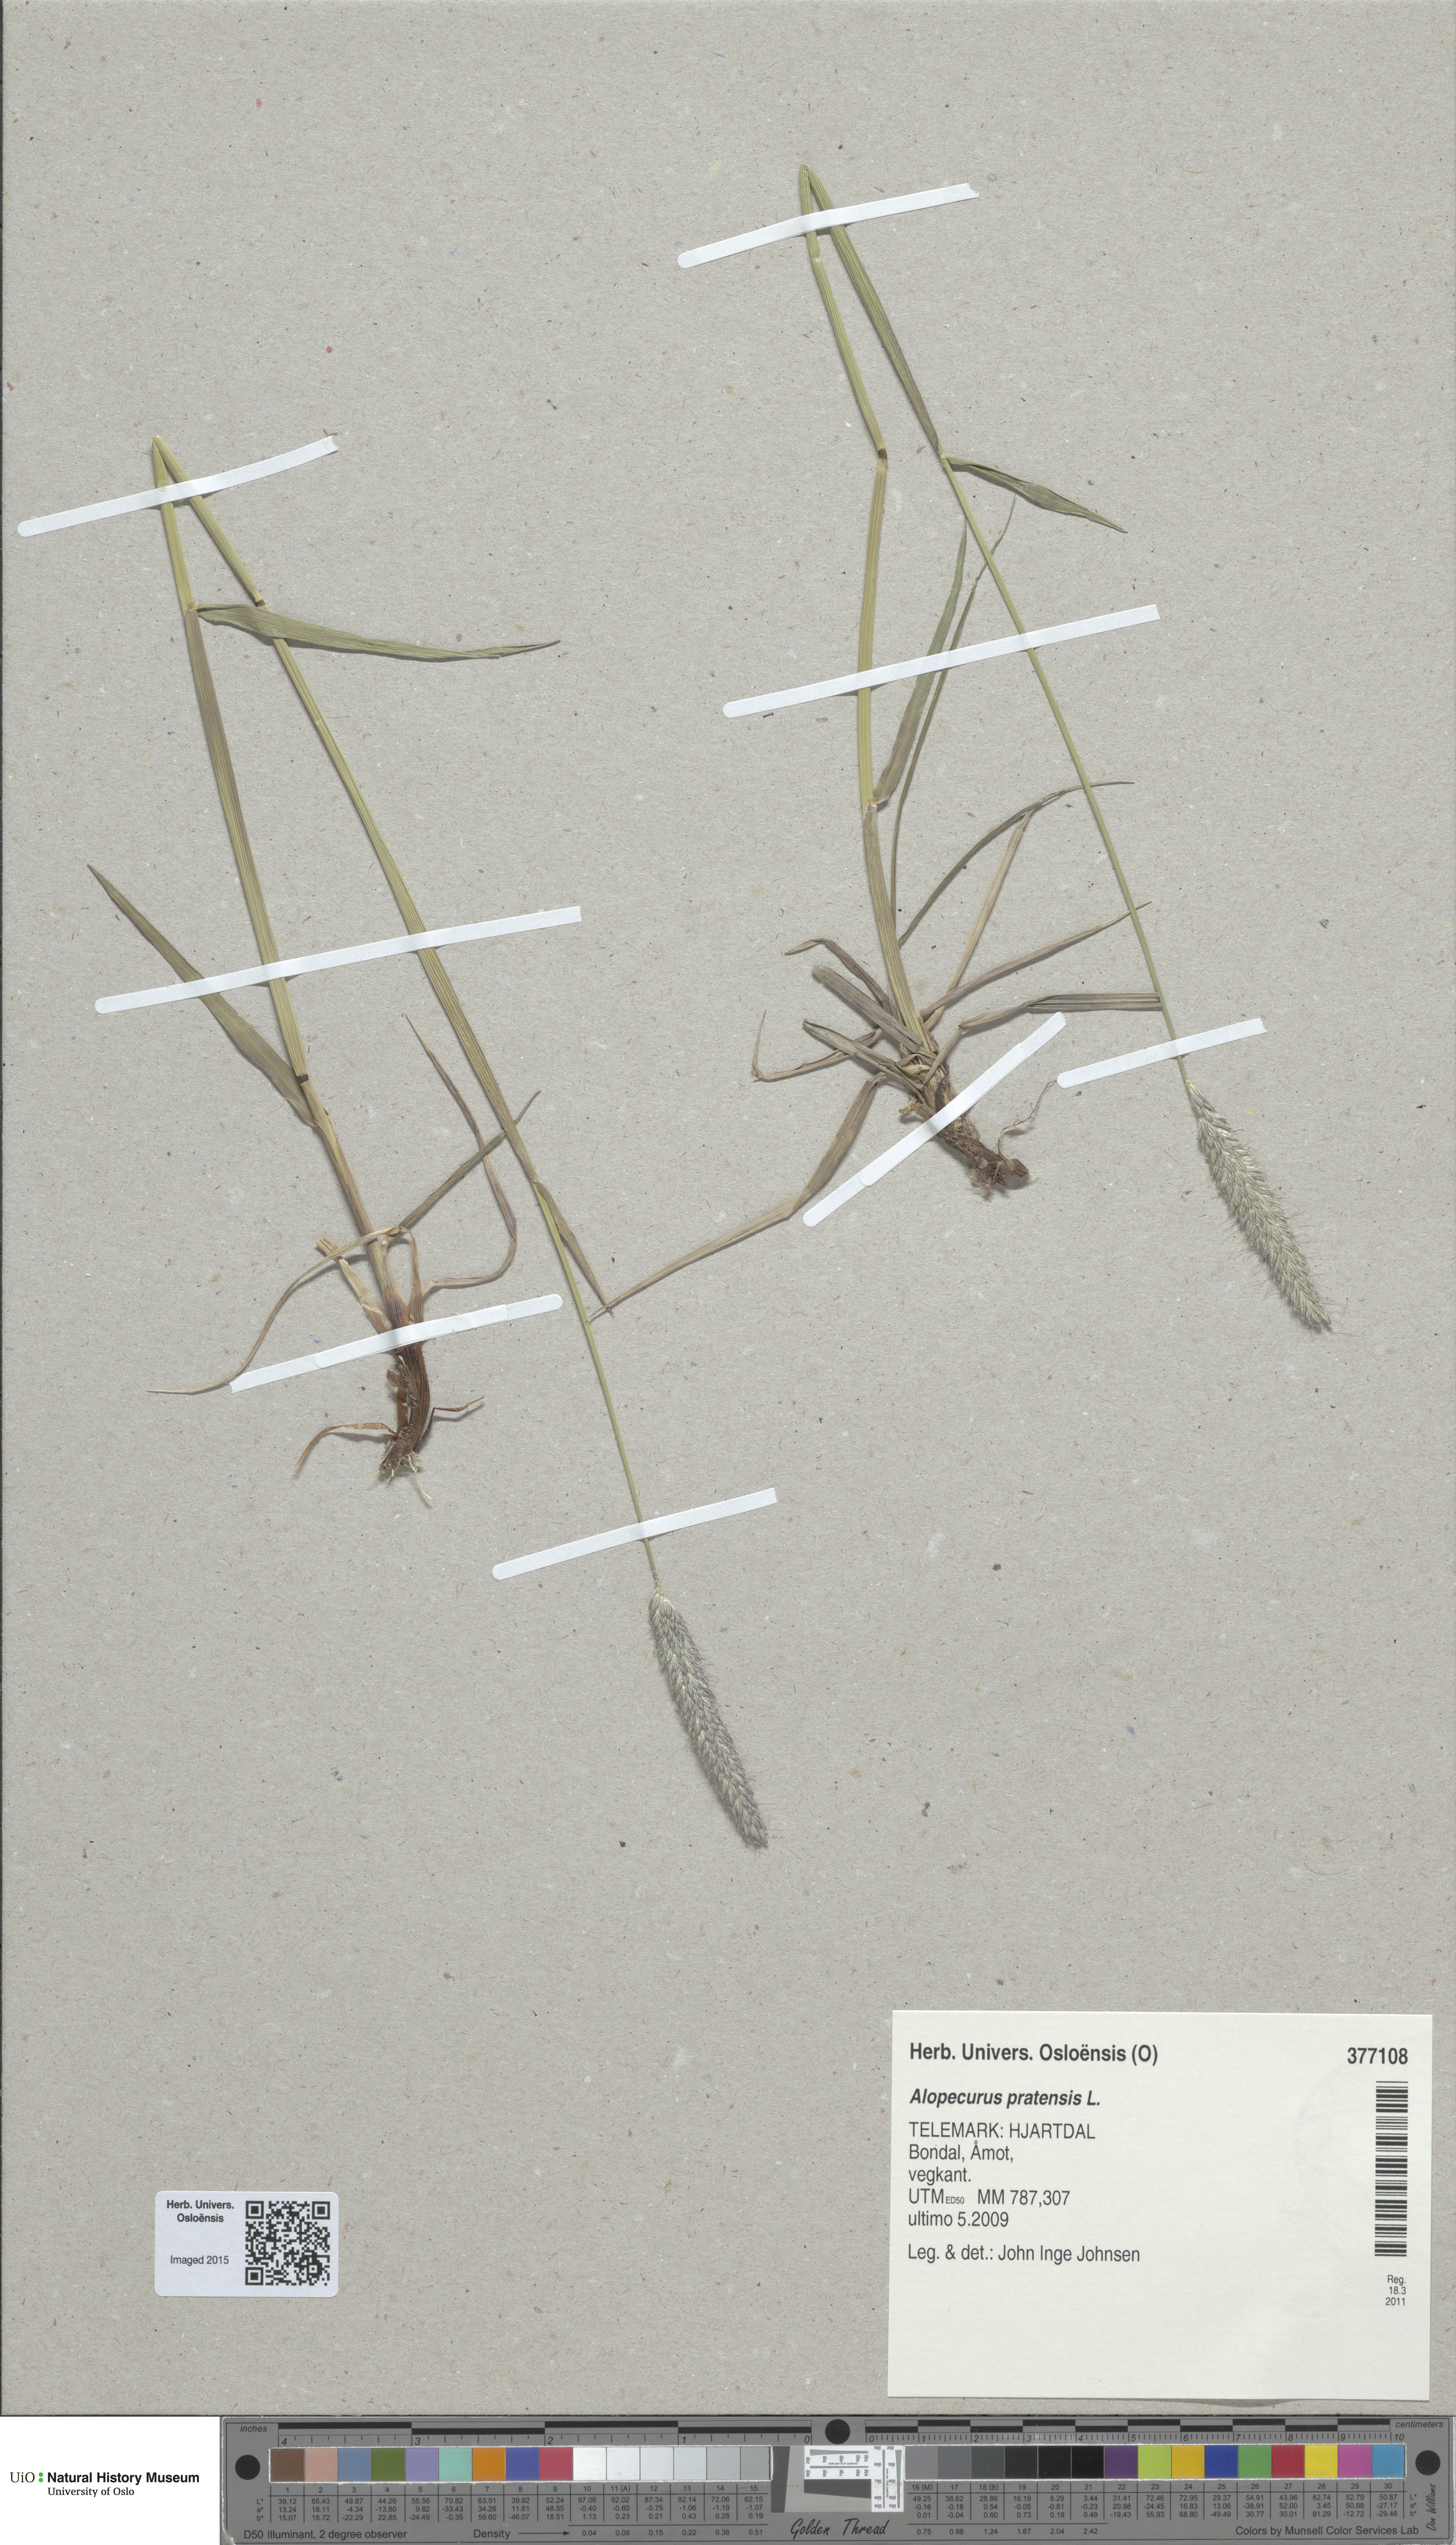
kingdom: Plantae
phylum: Tracheophyta
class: Liliopsida
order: Poales
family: Poaceae
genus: Alopecurus
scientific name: Alopecurus pratensis
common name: Meadow foxtail
